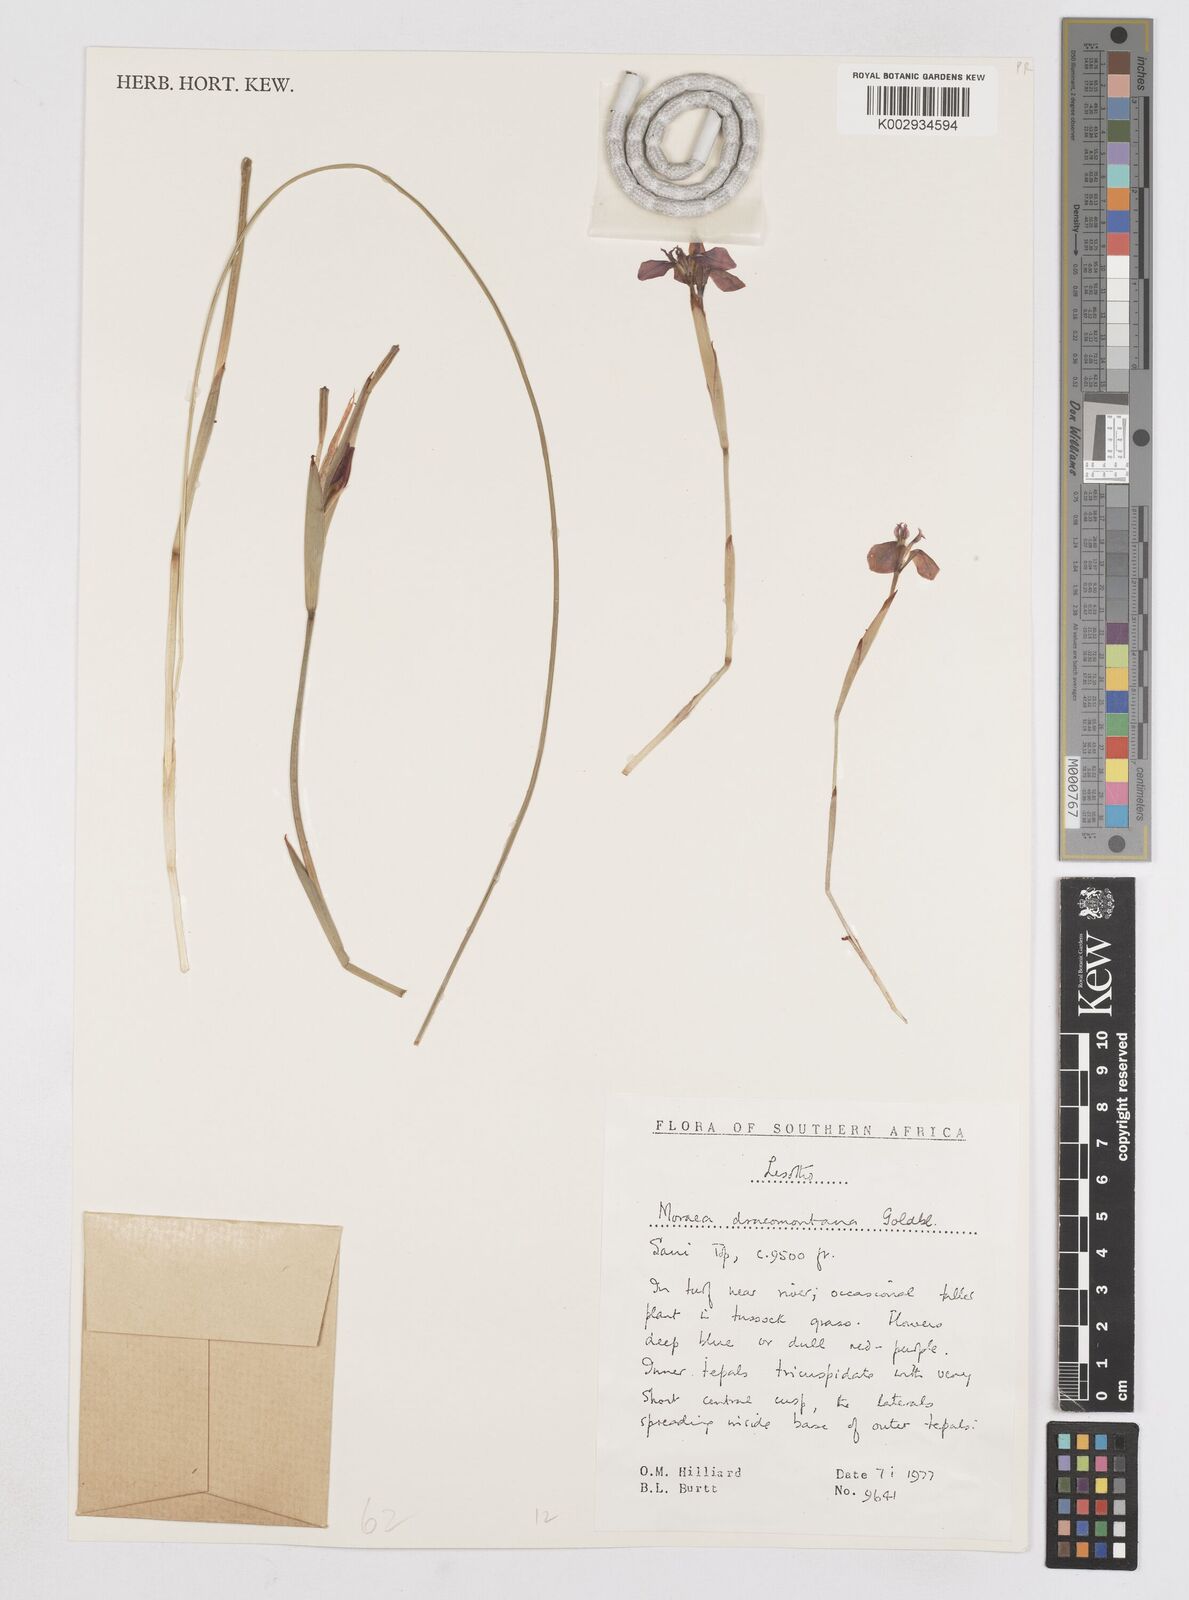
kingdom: Plantae
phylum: Tracheophyta
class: Liliopsida
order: Asparagales
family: Iridaceae
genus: Moraea
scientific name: Moraea dracomontana
